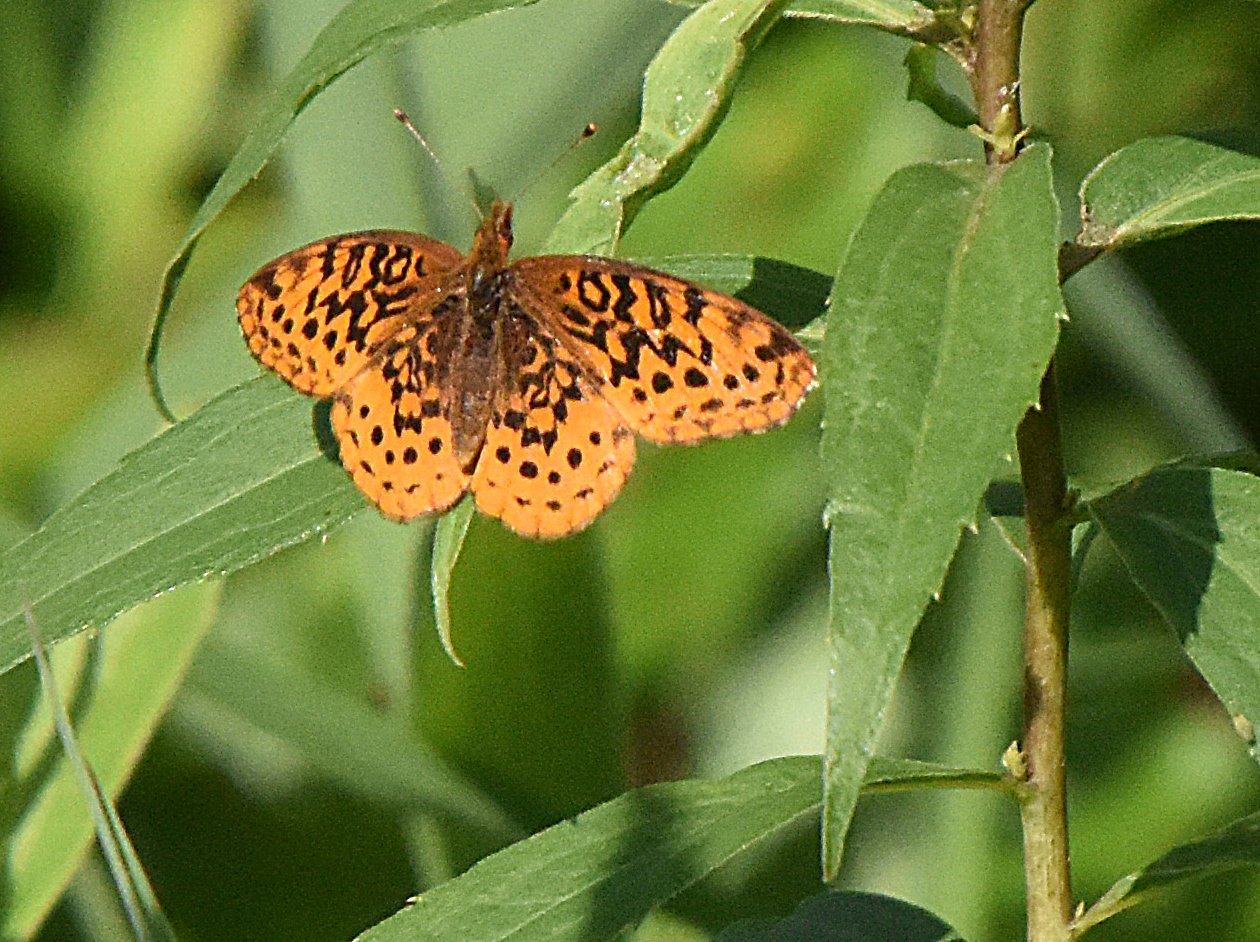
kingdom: Animalia
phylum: Arthropoda
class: Insecta
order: Lepidoptera
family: Nymphalidae
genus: Clossiana
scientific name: Clossiana toddi
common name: Meadow Fritillary
